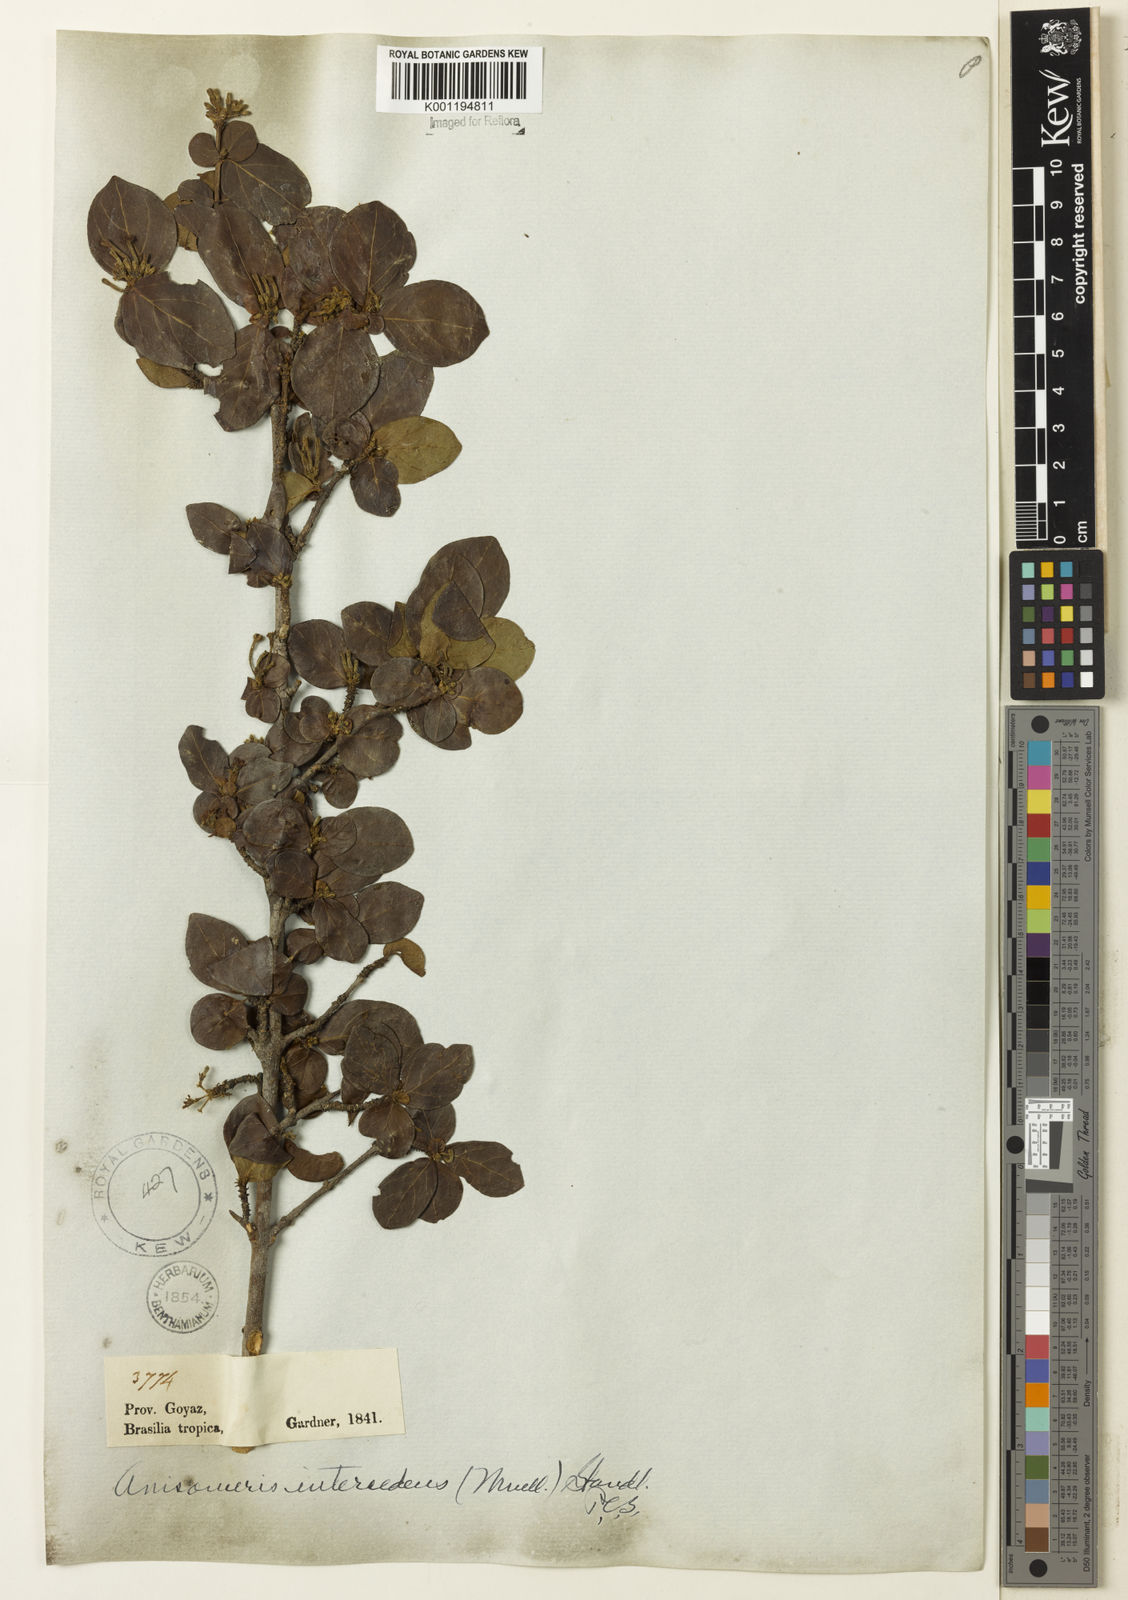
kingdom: Plantae
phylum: Tracheophyta
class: Magnoliopsida
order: Gentianales
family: Rubiaceae
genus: Chomelia
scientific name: Chomelia
